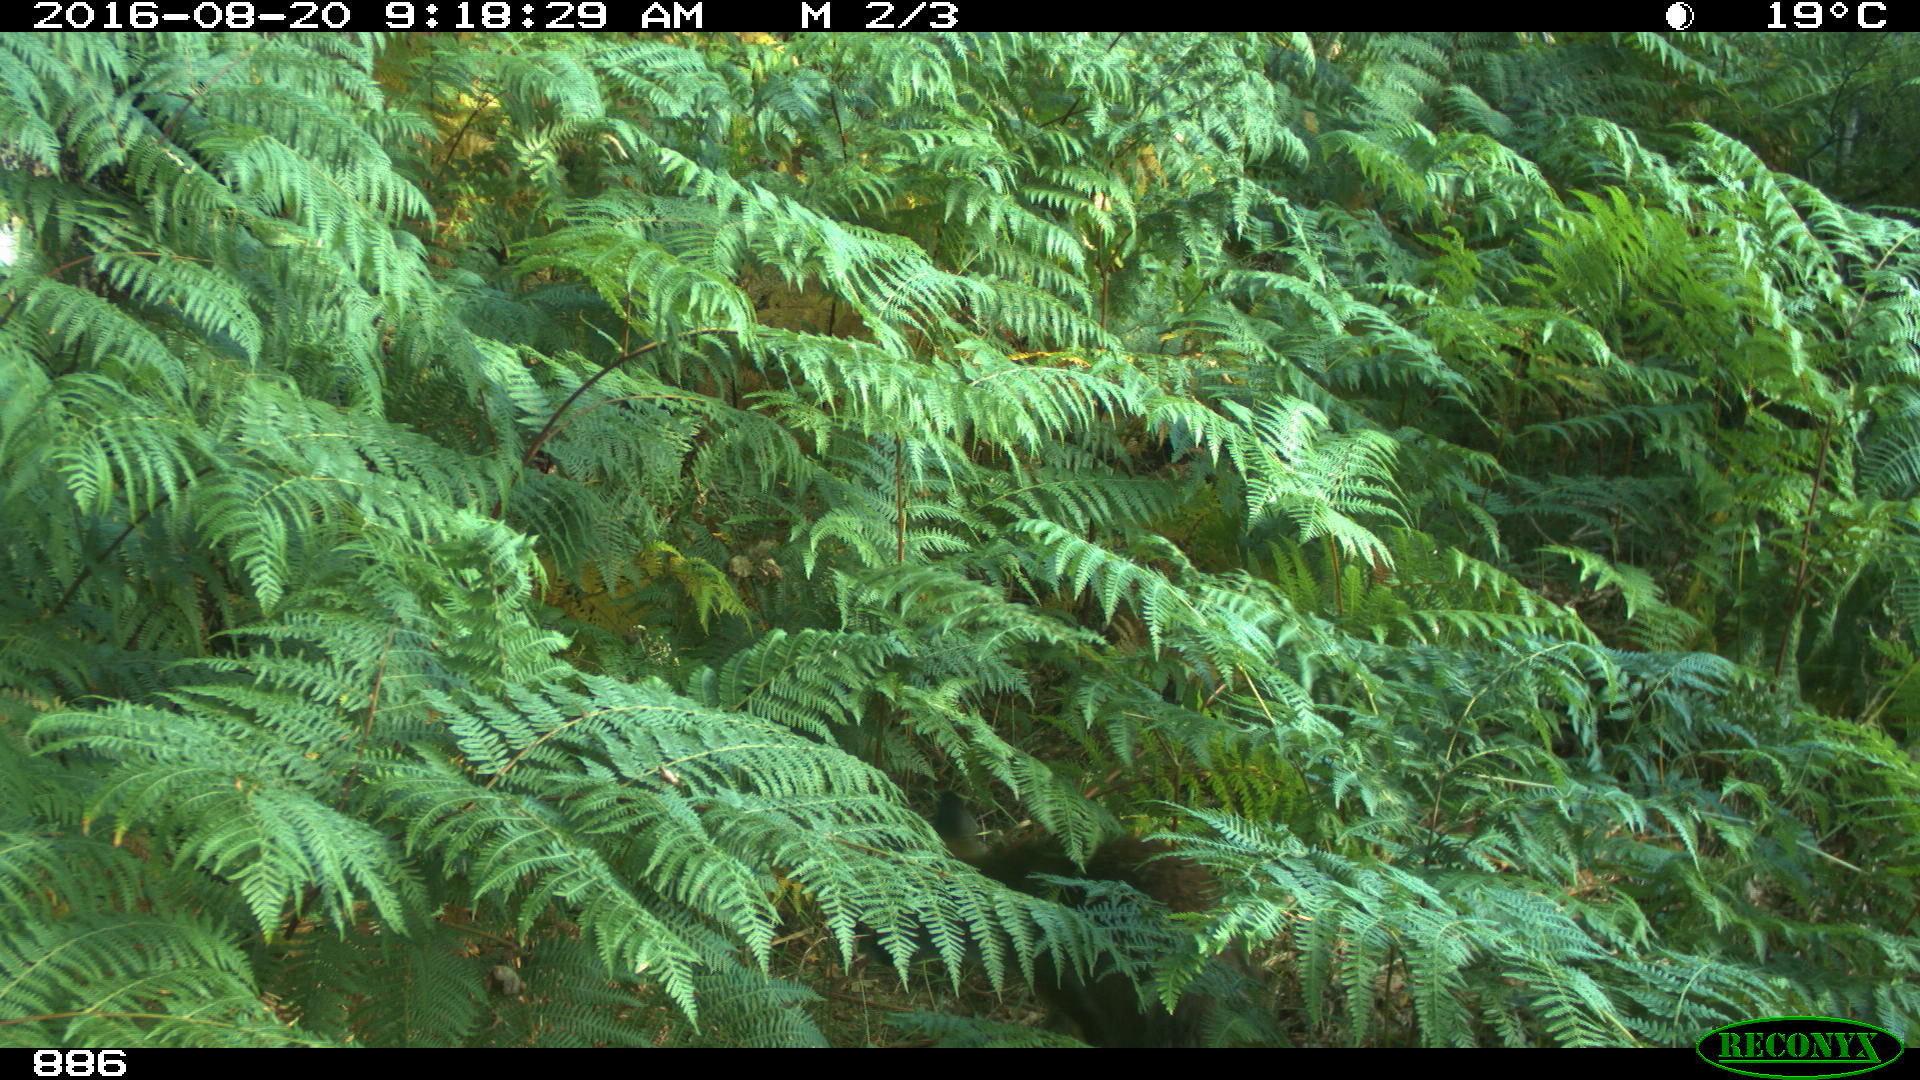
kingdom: Animalia
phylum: Chordata
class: Mammalia
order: Artiodactyla
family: Suidae
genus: Sus
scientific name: Sus scrofa
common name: Wild boar
